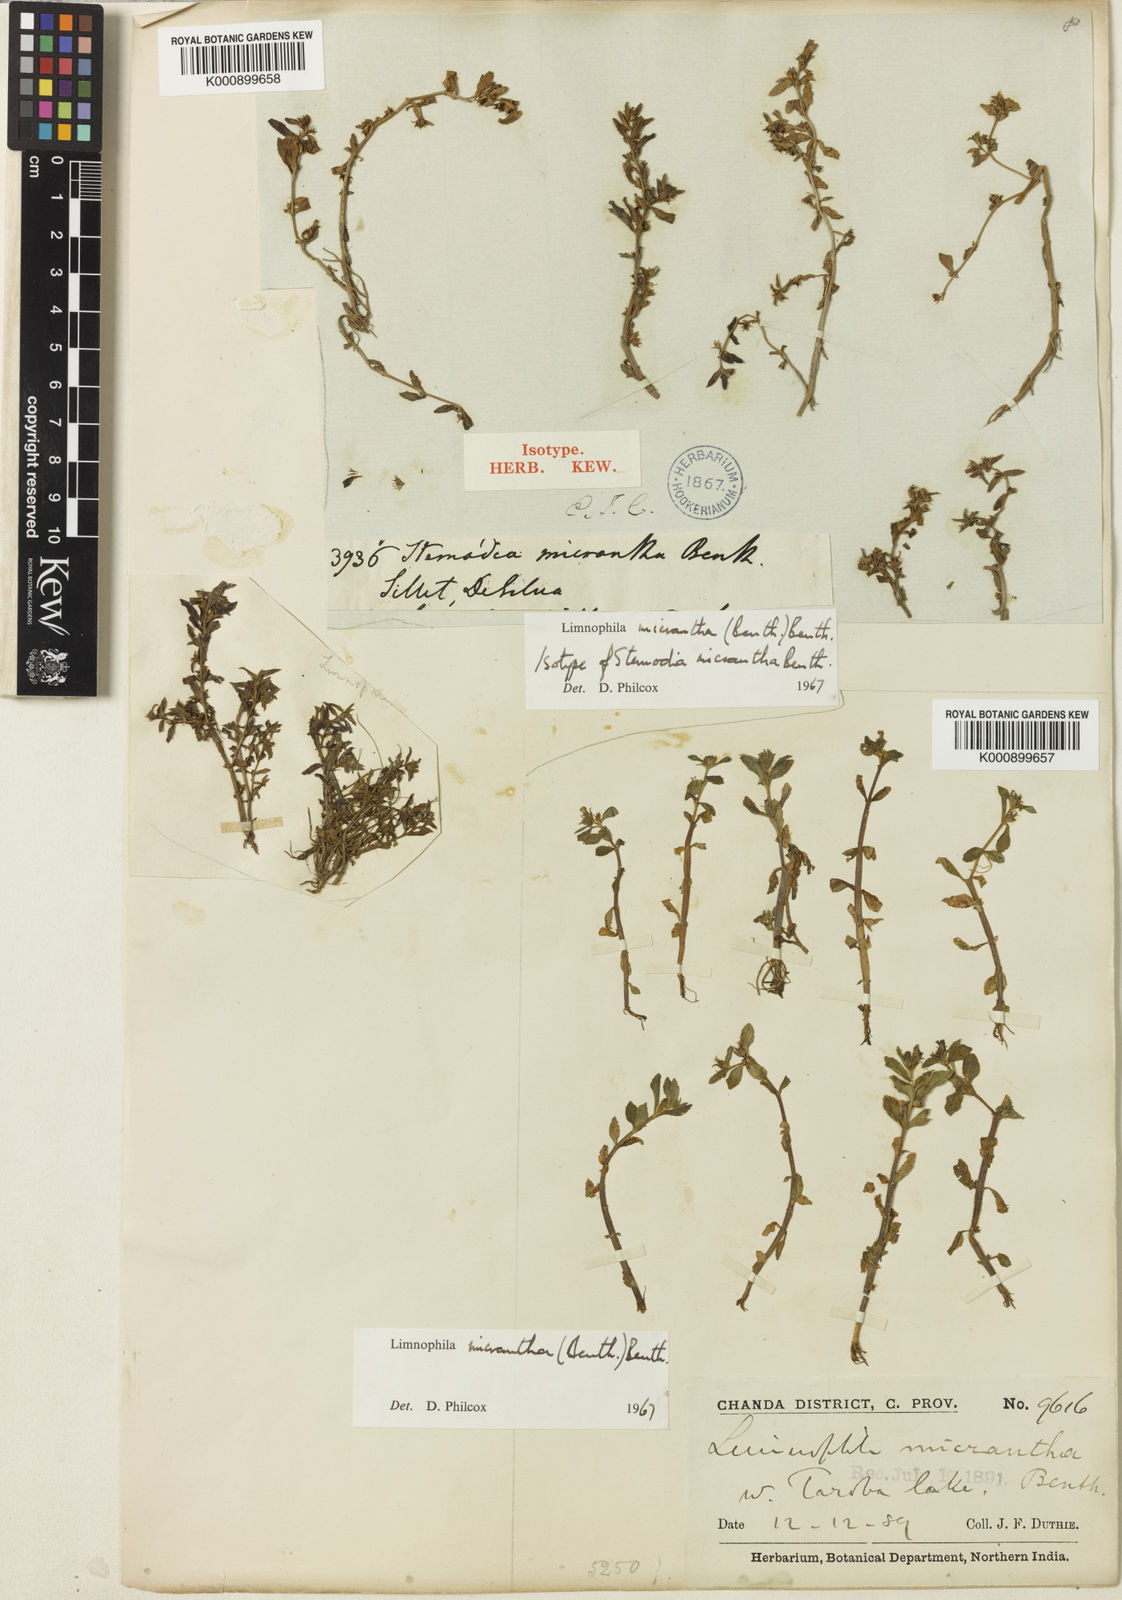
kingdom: Plantae
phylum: Tracheophyta
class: Magnoliopsida
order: Lamiales
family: Plantaginaceae
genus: Limnophila
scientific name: Limnophila micrantha
